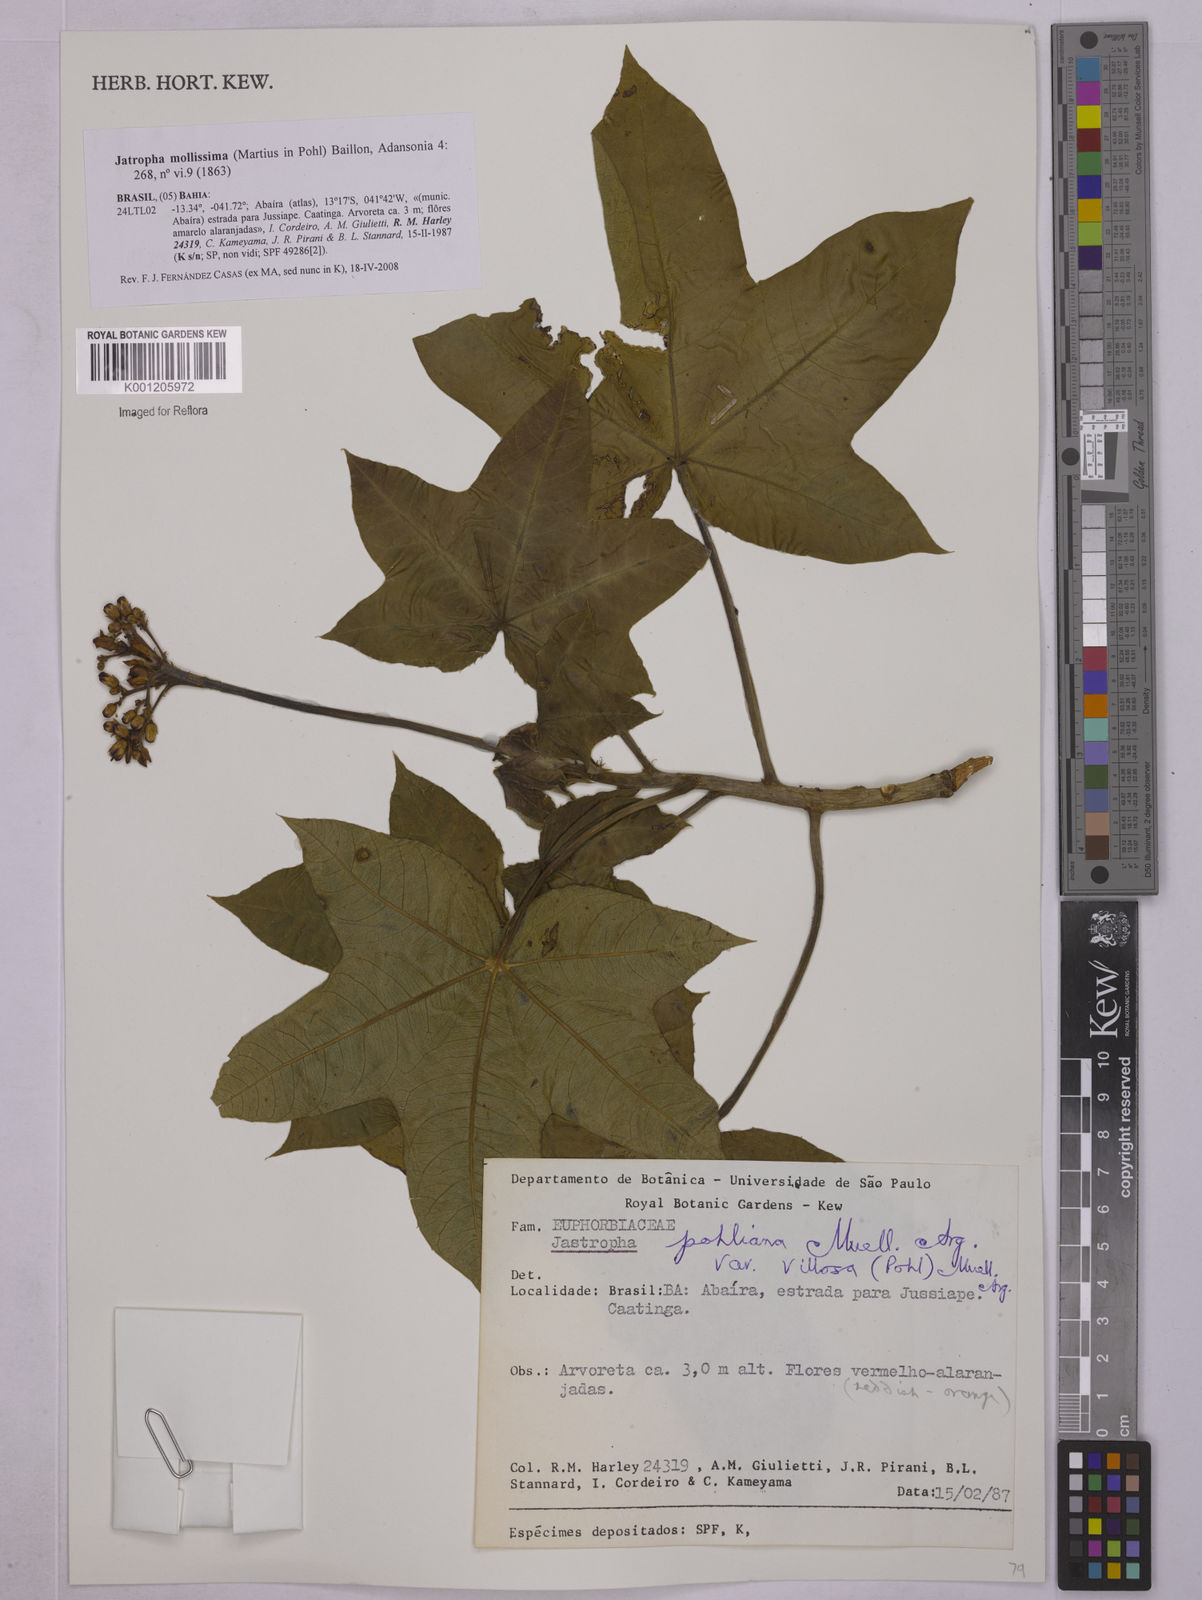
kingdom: Plantae
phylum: Tracheophyta
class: Magnoliopsida
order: Malpighiales
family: Euphorbiaceae
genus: Jatropha
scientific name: Jatropha mollissima
